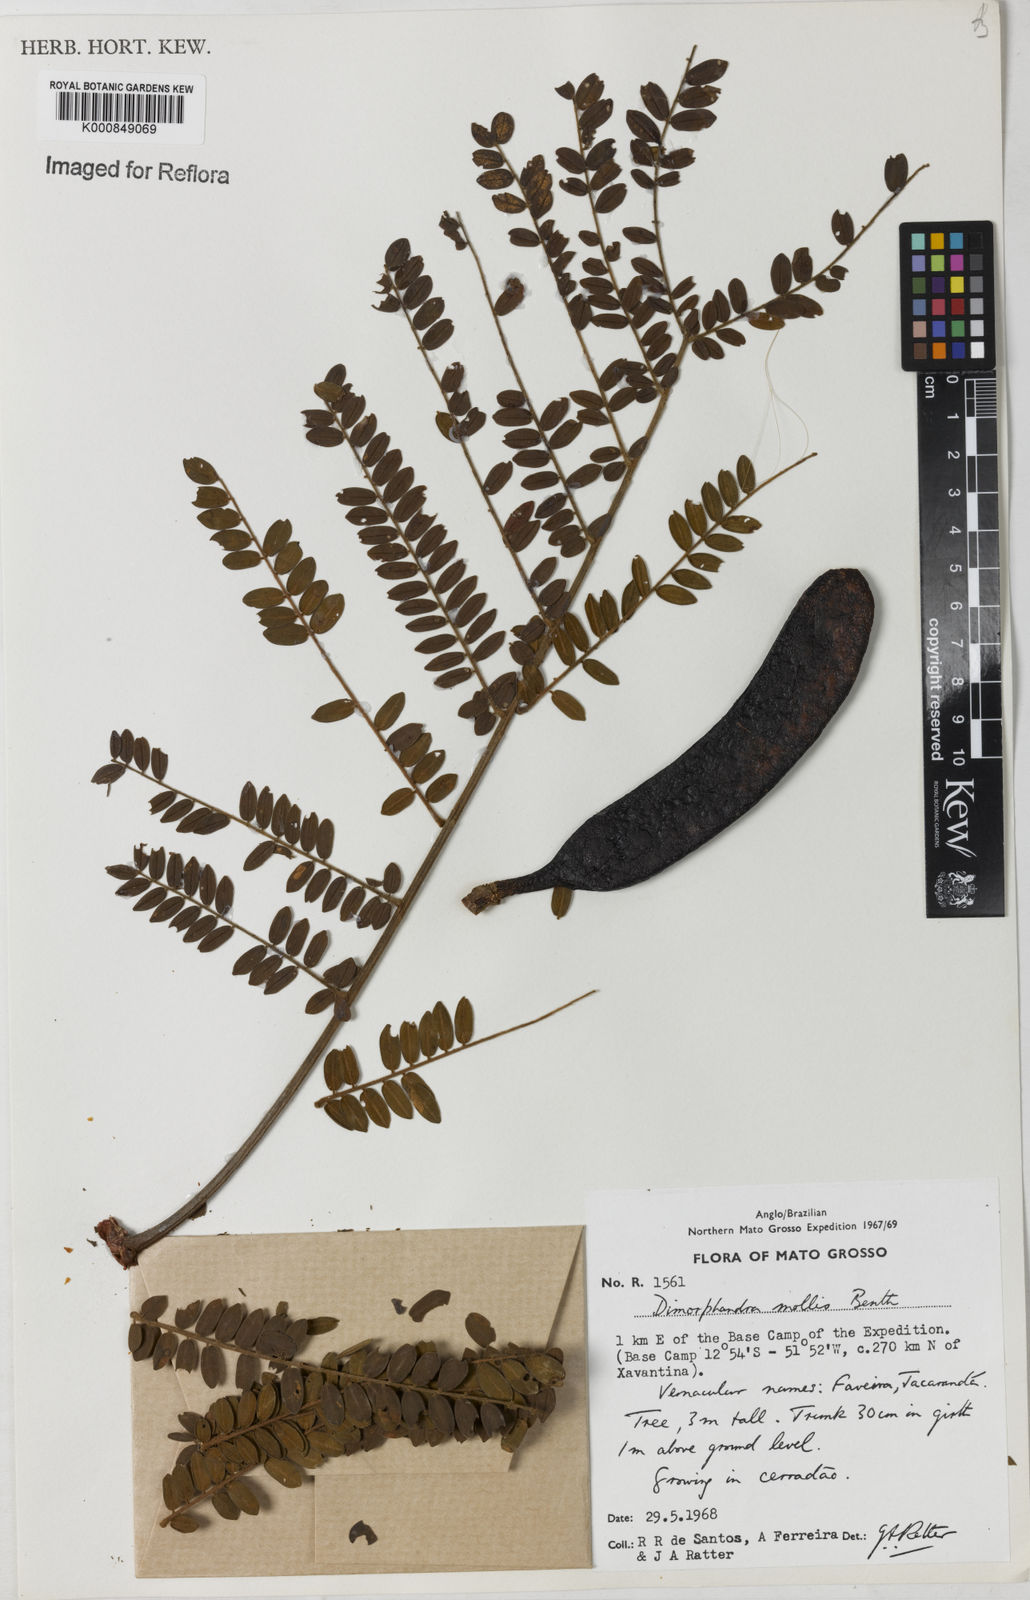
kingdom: Plantae
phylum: Tracheophyta
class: Magnoliopsida
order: Fabales
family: Fabaceae
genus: Dimorphandra
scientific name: Dimorphandra mollis
